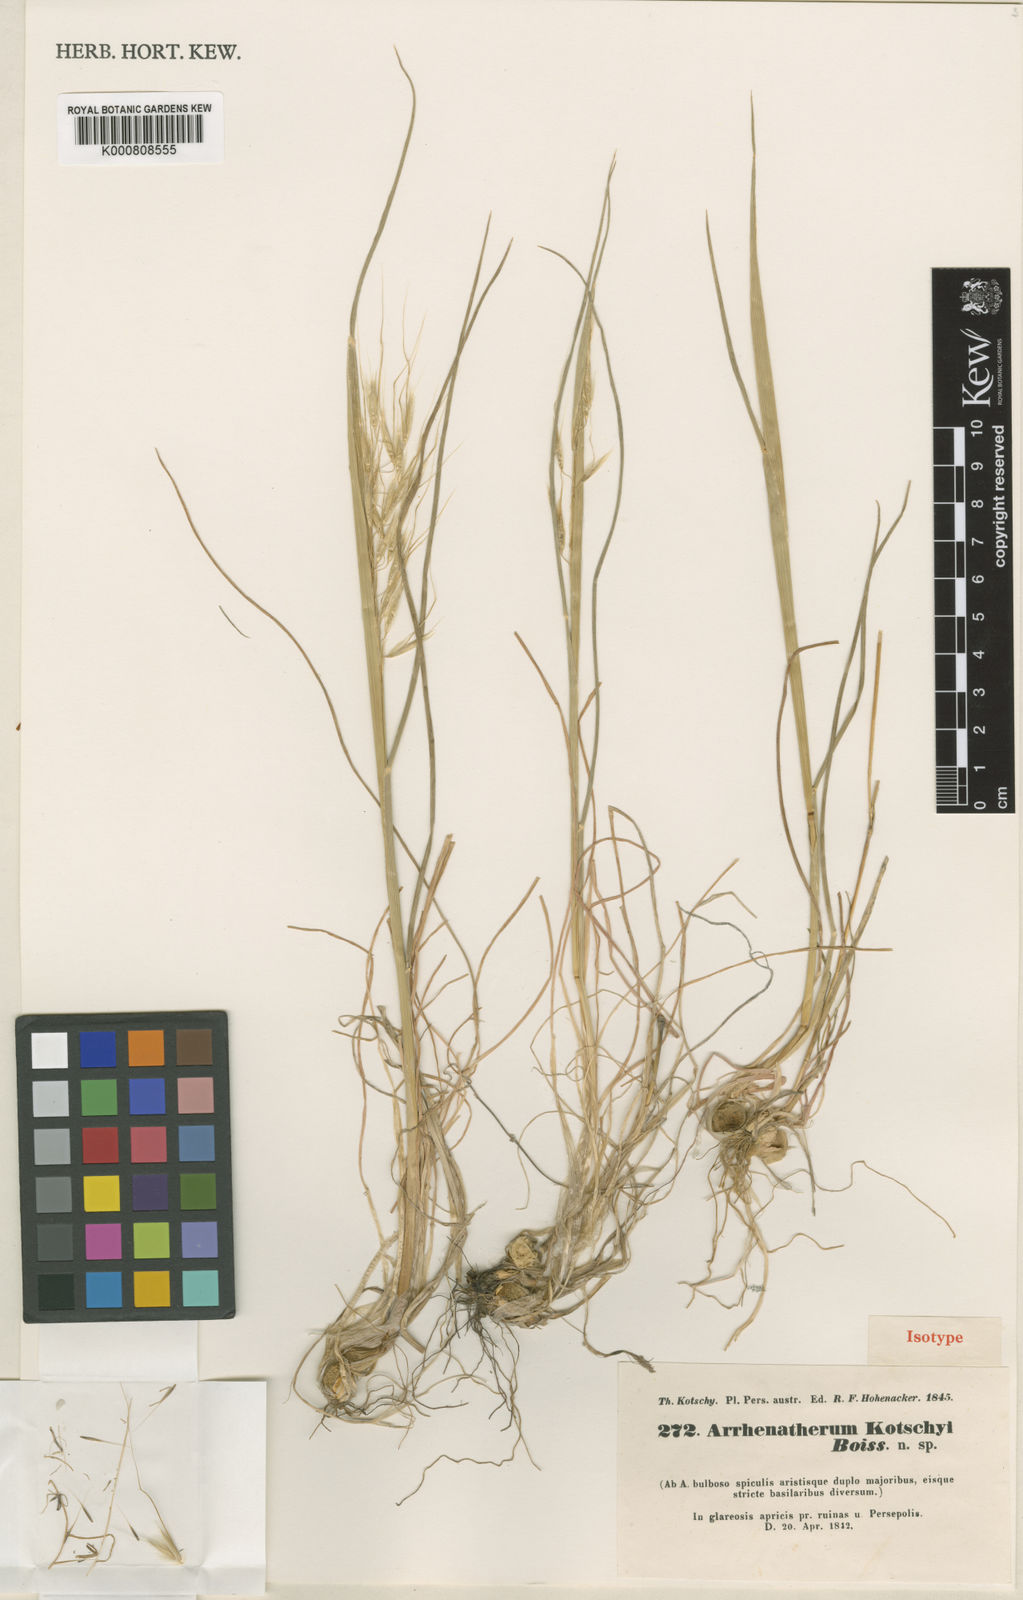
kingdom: Plantae
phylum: Tracheophyta
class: Liliopsida
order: Poales
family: Poaceae
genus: Arrhenatherum
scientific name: Arrhenatherum kotschyi
